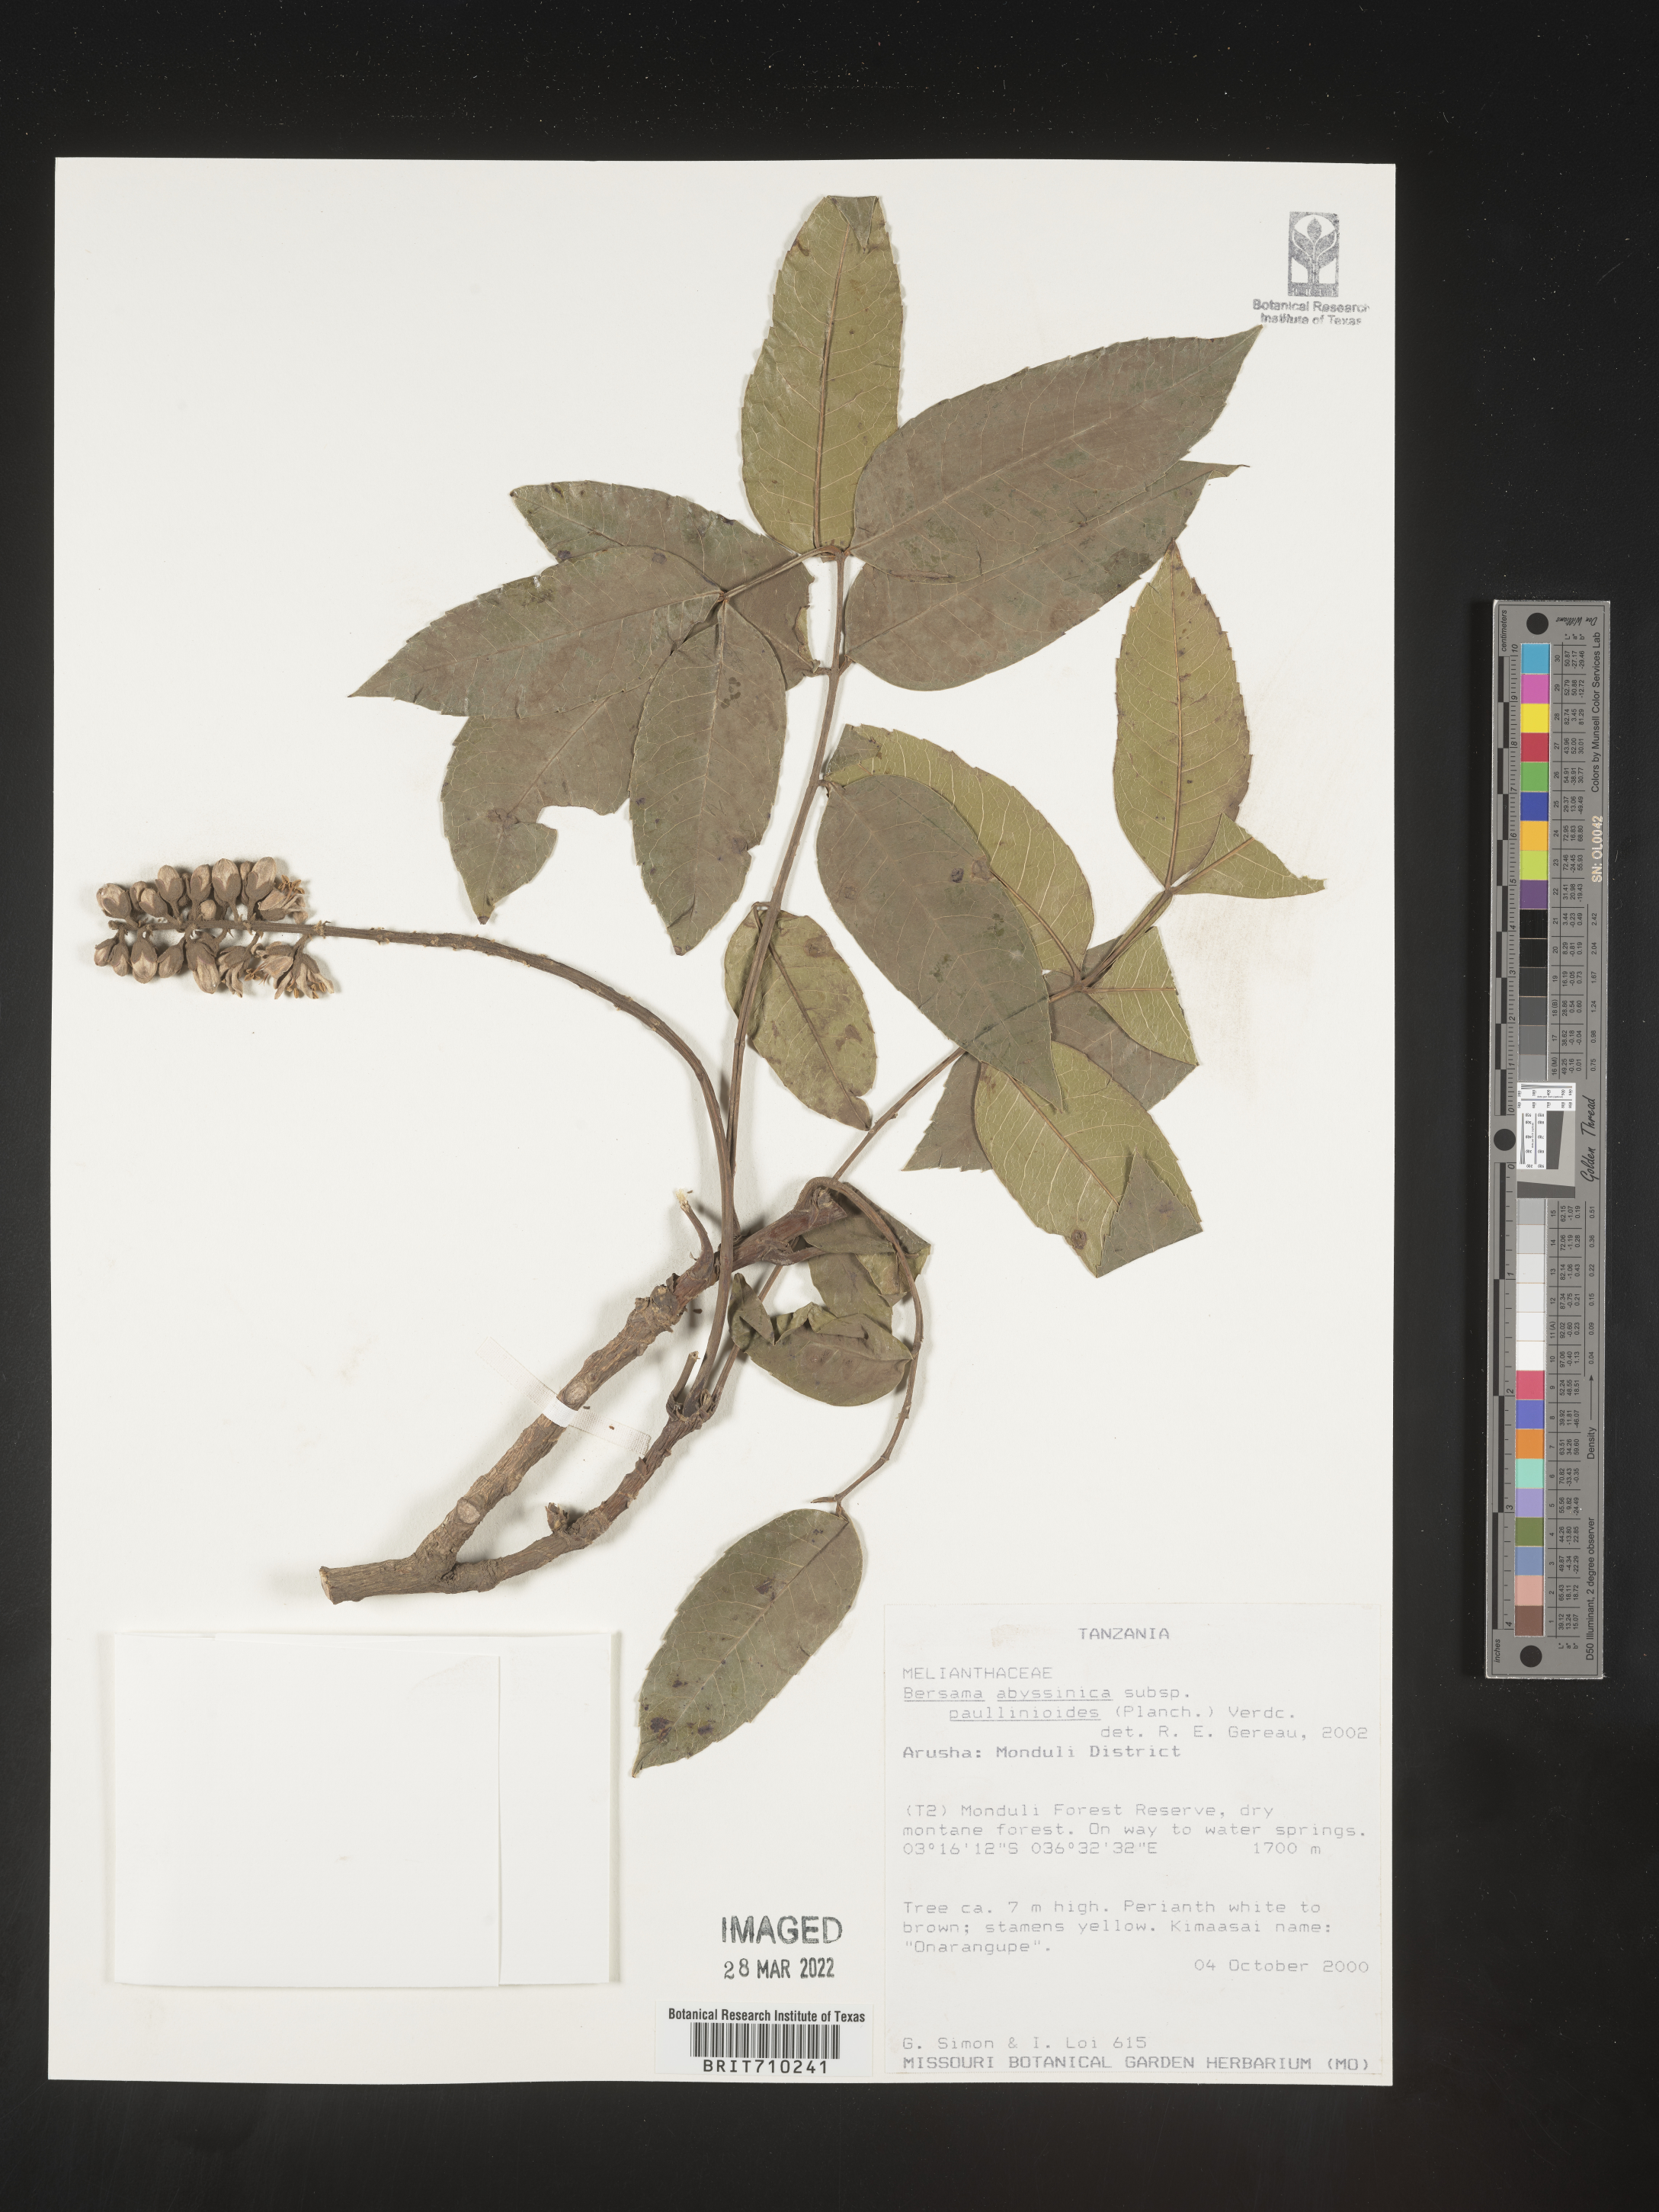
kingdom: Plantae
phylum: Tracheophyta
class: Magnoliopsida
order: Geraniales
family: Melianthaceae
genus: Bersama
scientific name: Bersama
